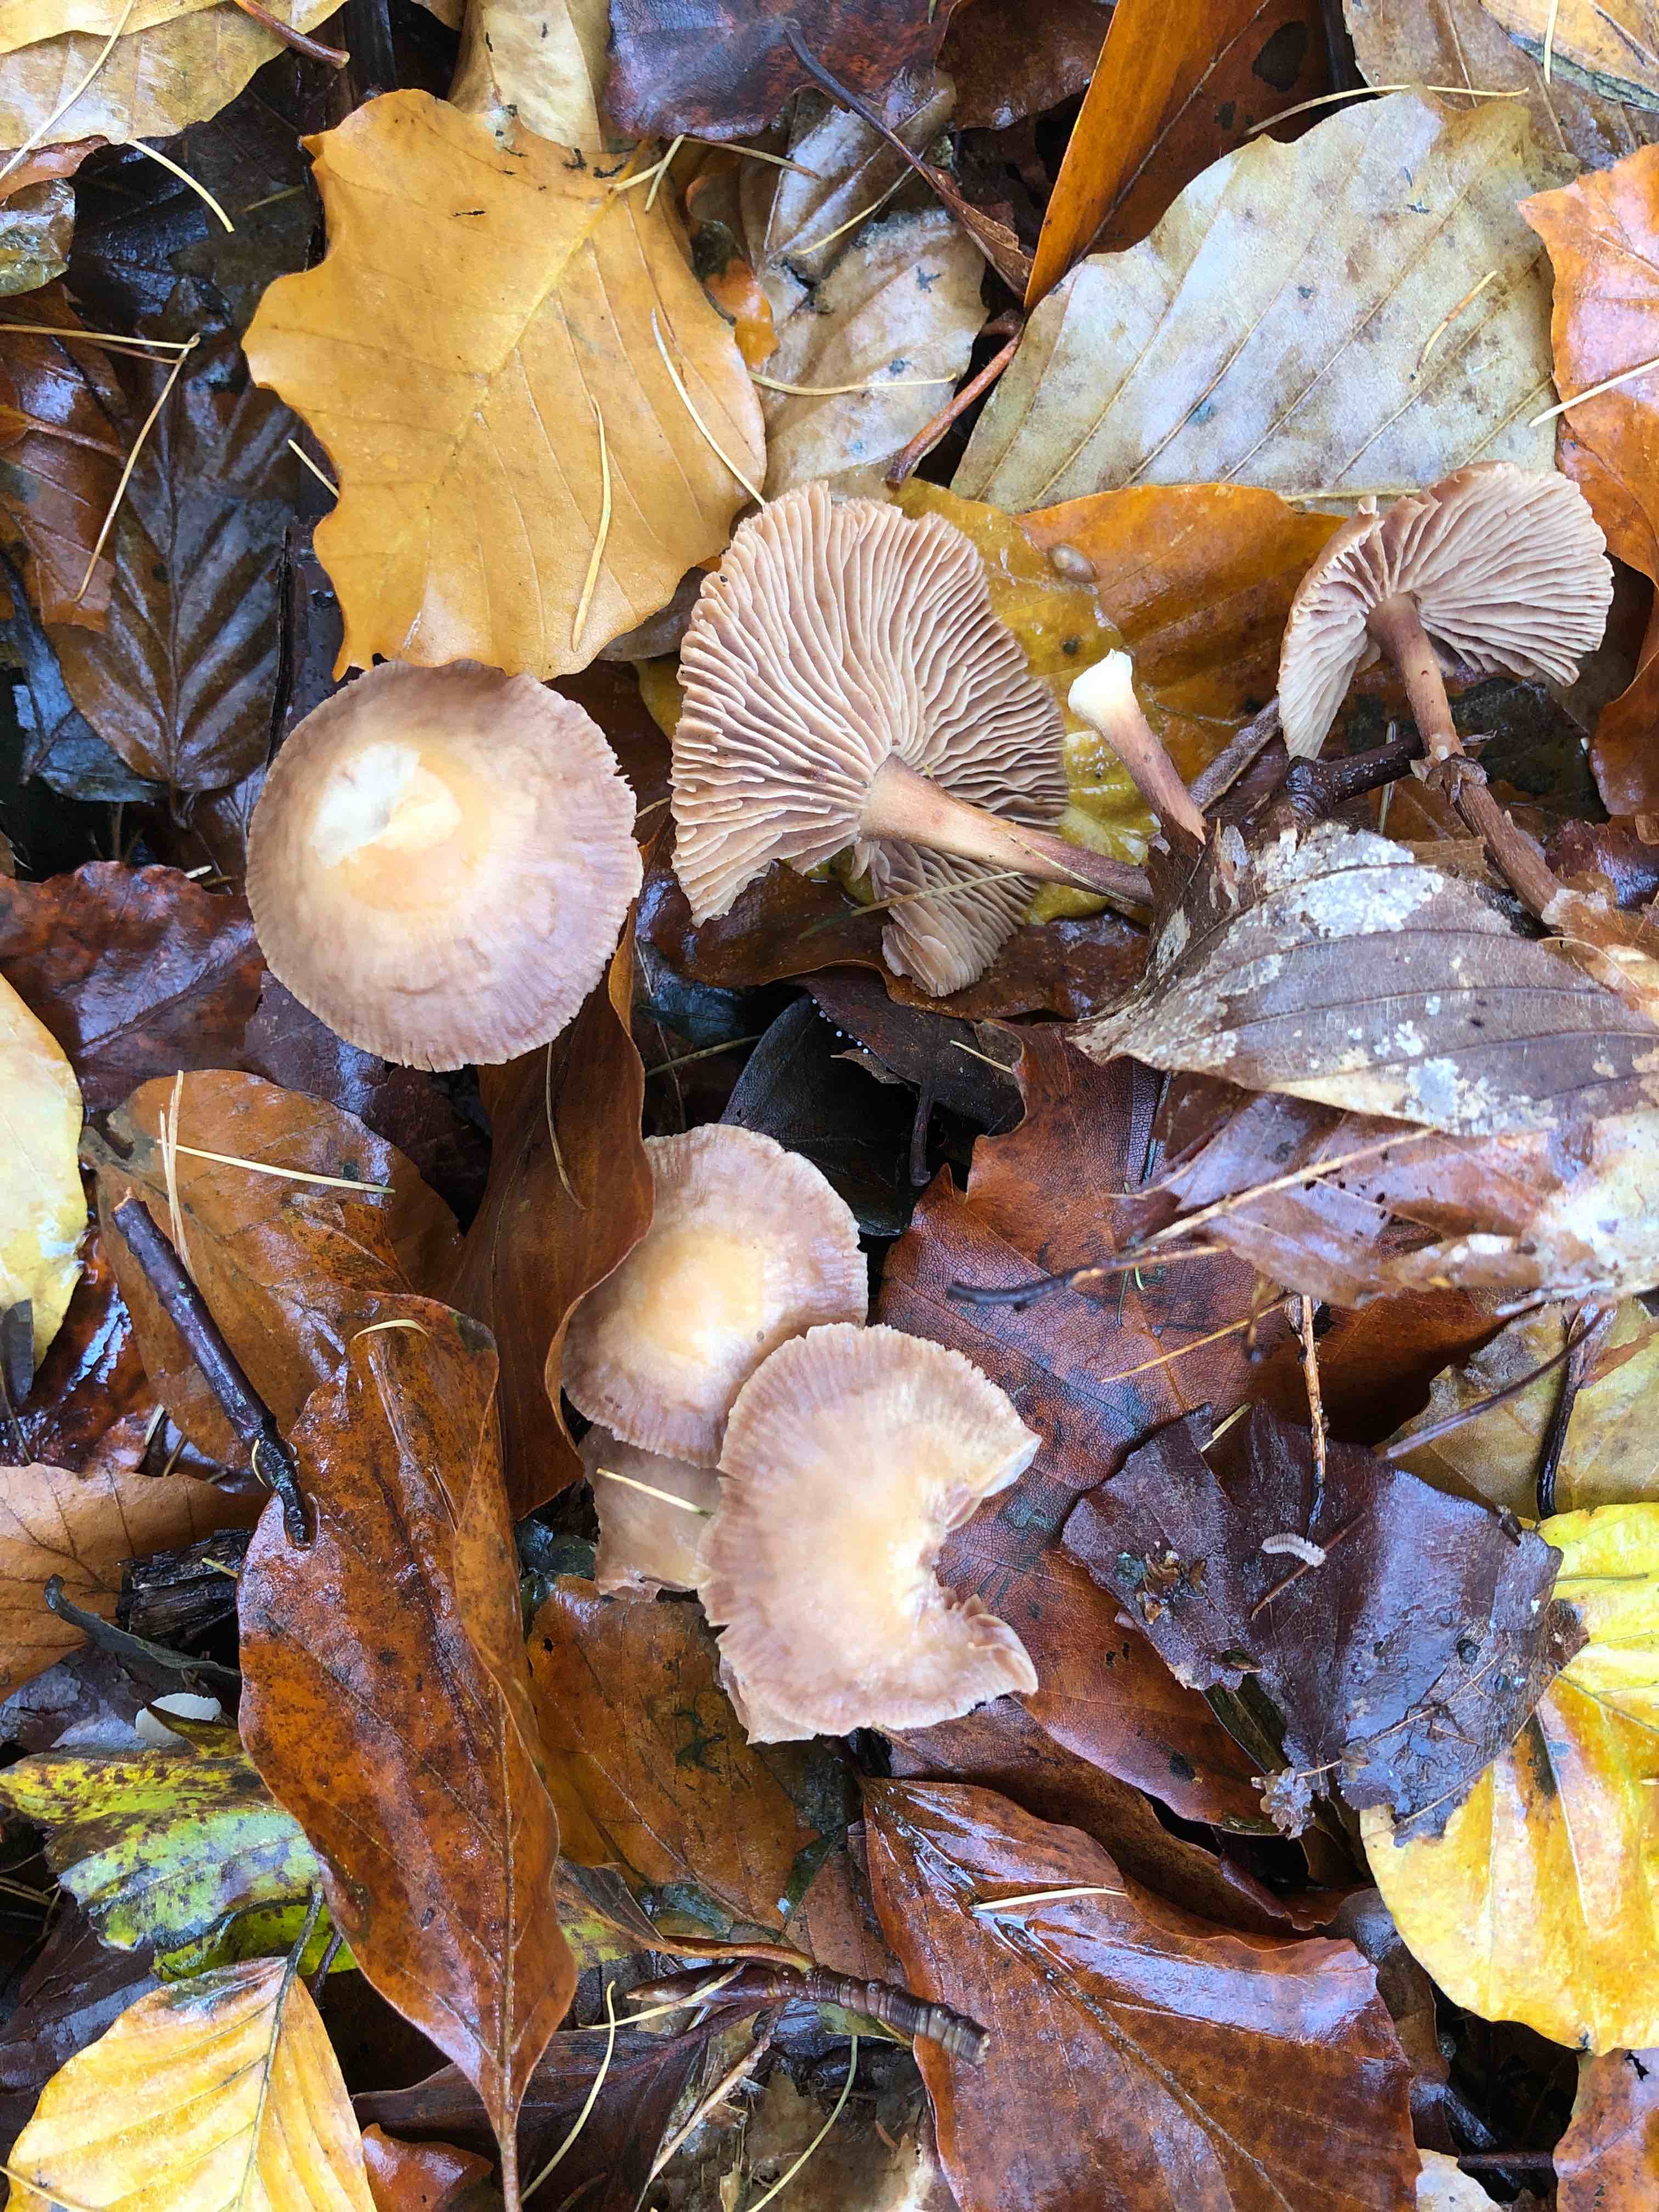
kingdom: Fungi
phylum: Basidiomycota
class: Agaricomycetes
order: Agaricales
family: Omphalotaceae
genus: Collybiopsis
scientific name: Collybiopsis peronata
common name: bestøvlet fladhat
